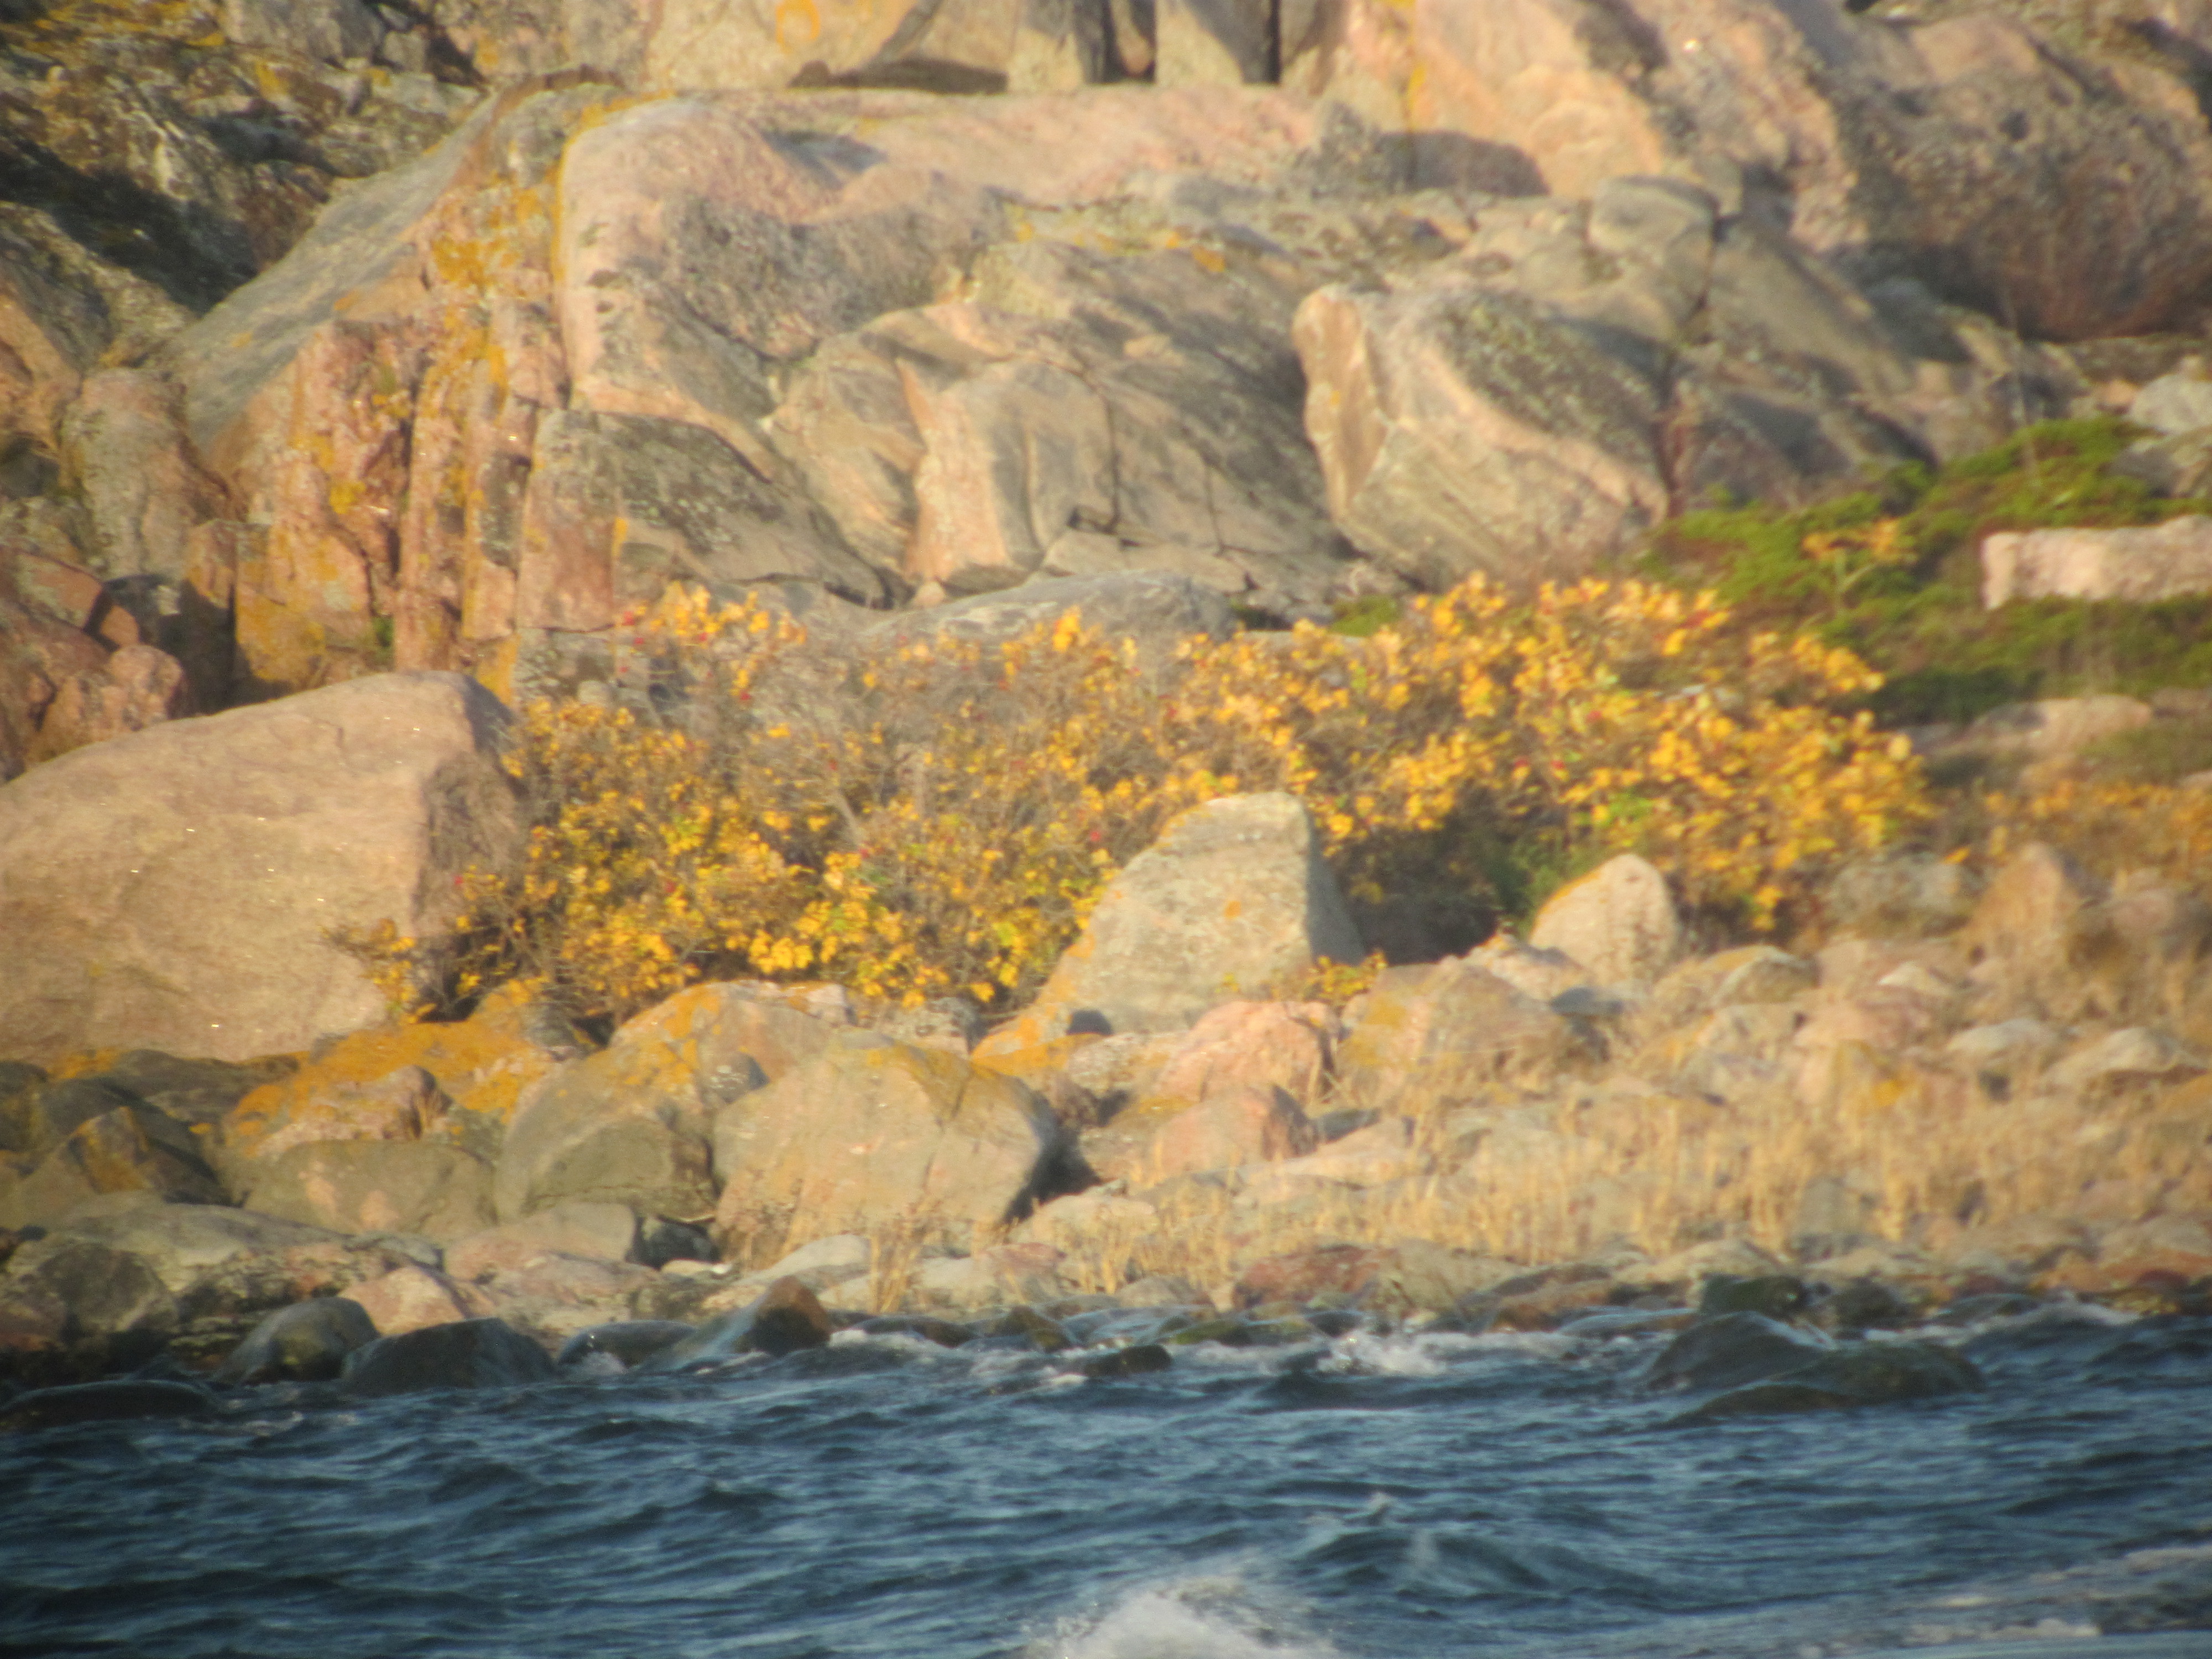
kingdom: Plantae
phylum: Tracheophyta
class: Magnoliopsida
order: Rosales
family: Rosaceae
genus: Rosa
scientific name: Rosa rugosa
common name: Japanese rose
